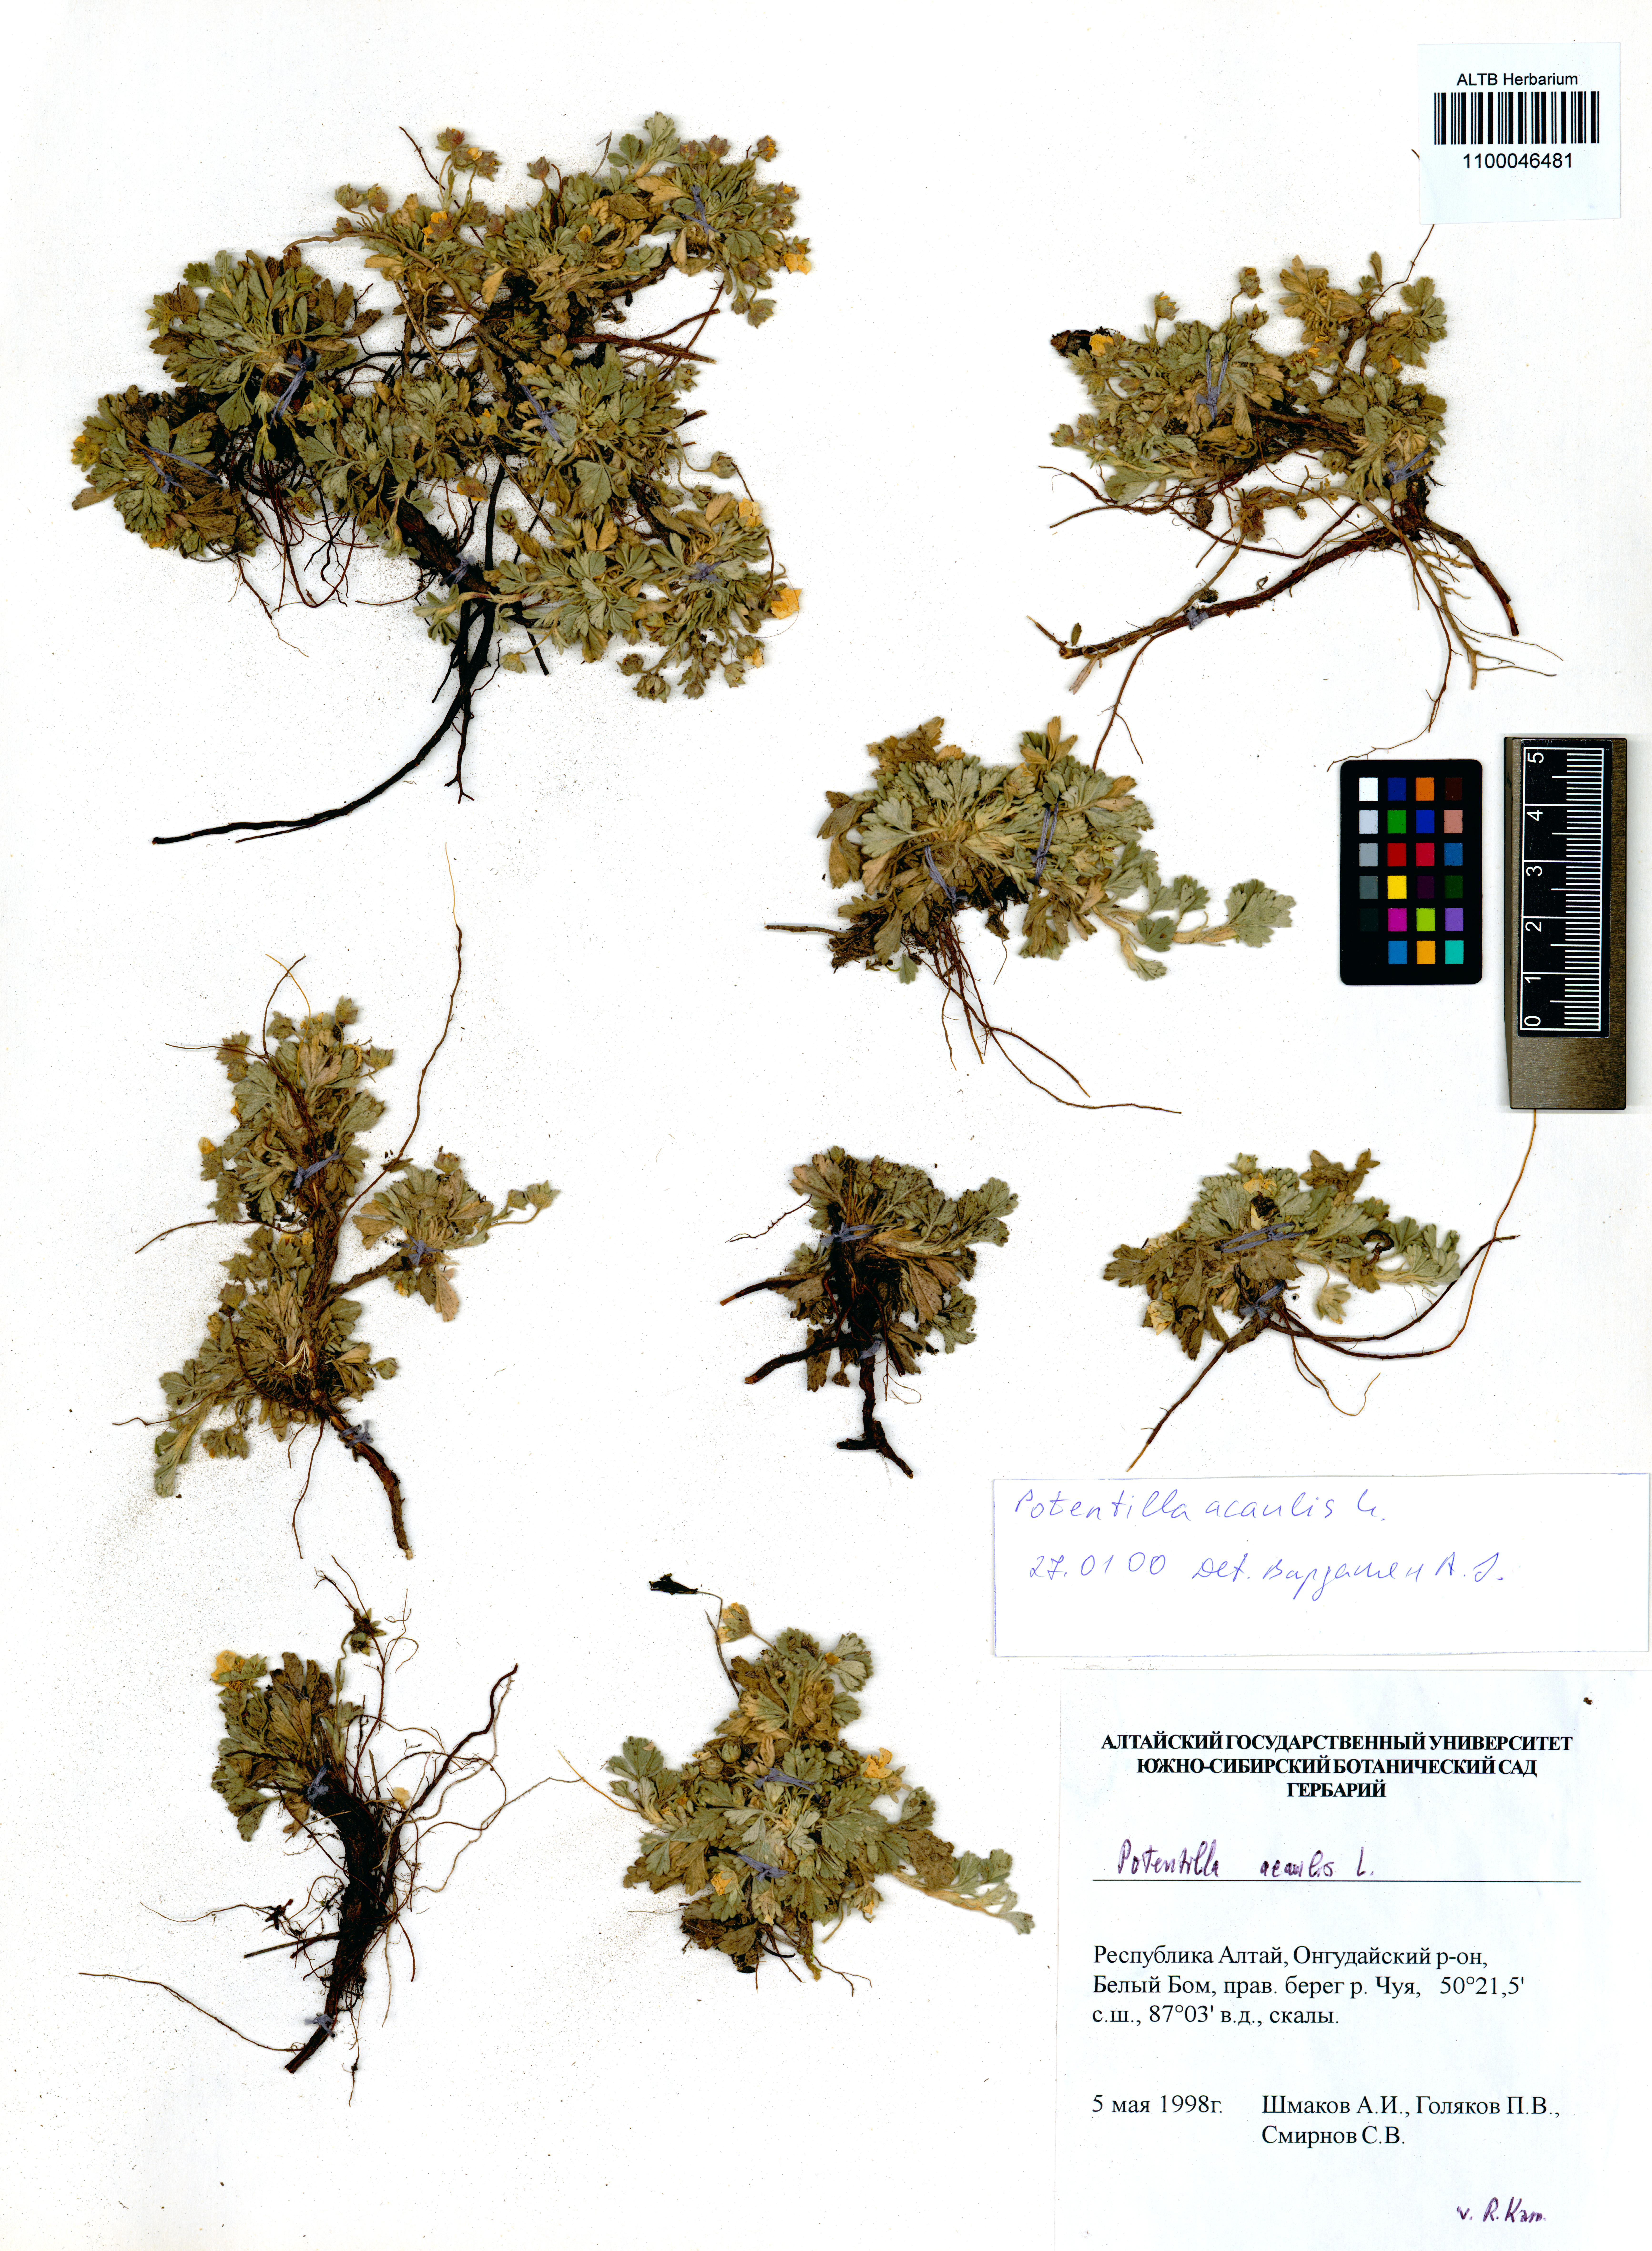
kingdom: Plantae
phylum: Tracheophyta
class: Magnoliopsida
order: Rosales
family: Rosaceae
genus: Potentilla
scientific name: Potentilla acaulis
